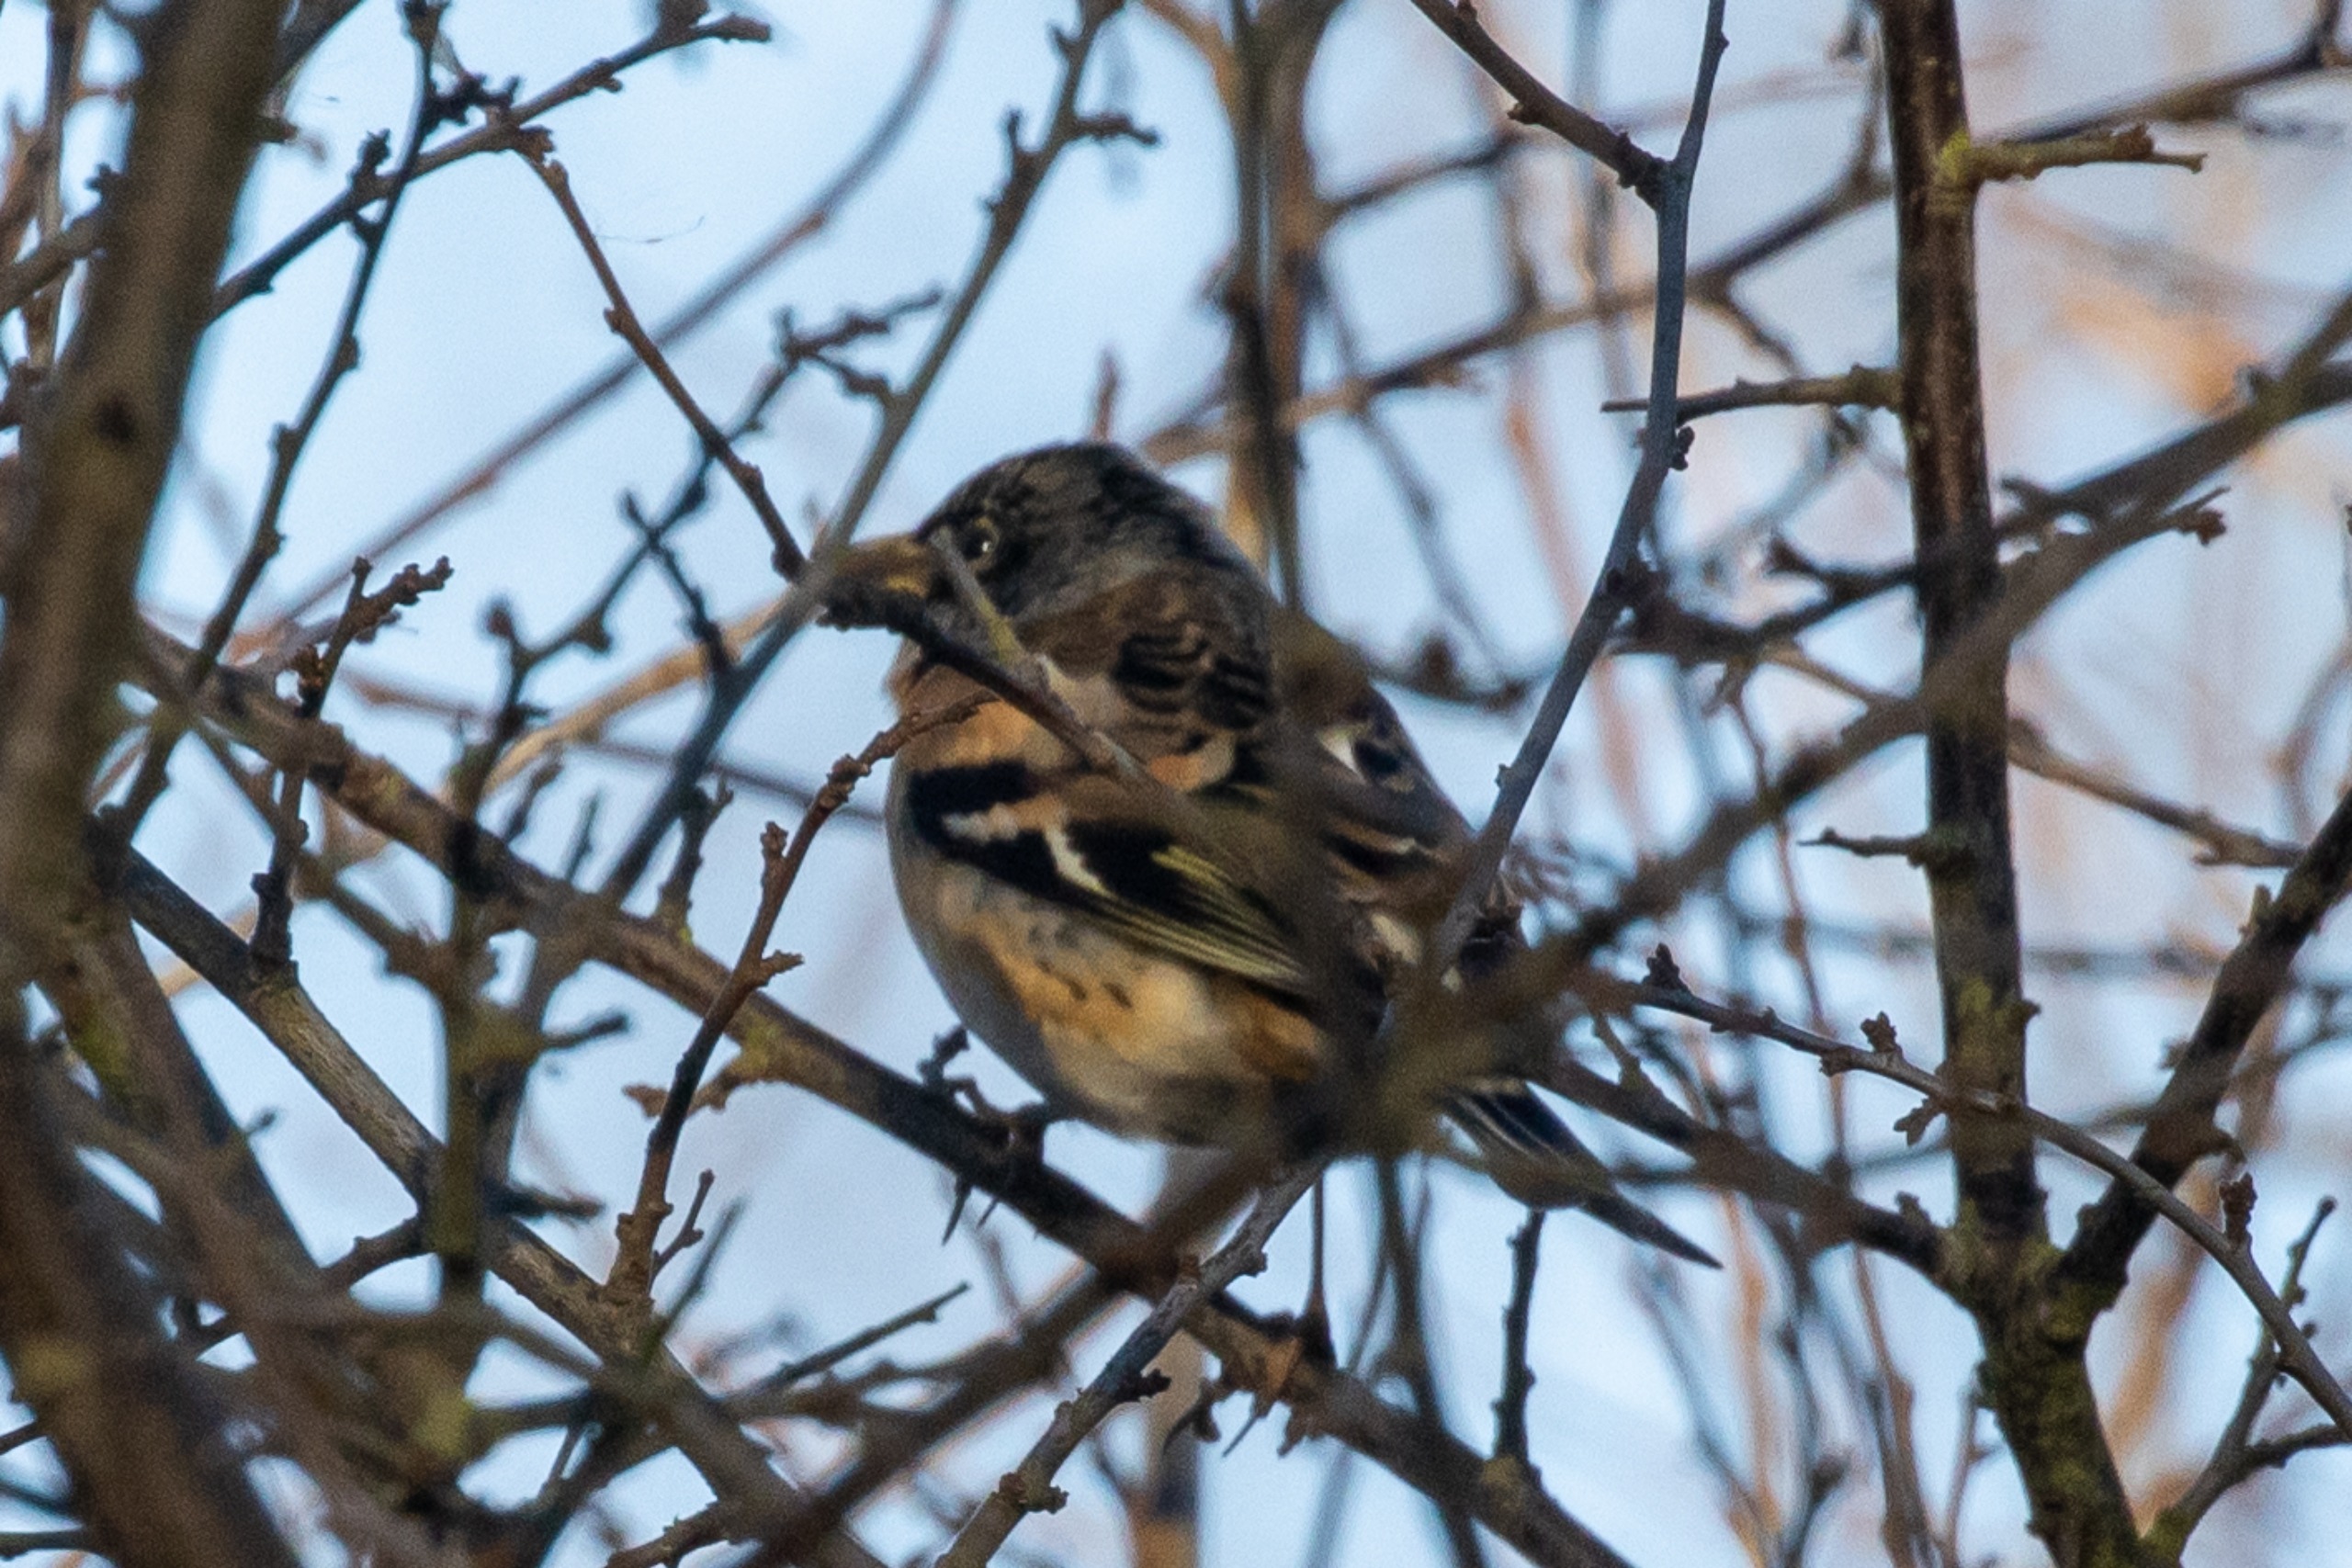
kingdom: Animalia
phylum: Chordata
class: Aves
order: Passeriformes
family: Fringillidae
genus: Fringilla
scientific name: Fringilla montifringilla
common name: Kvækerfinke
